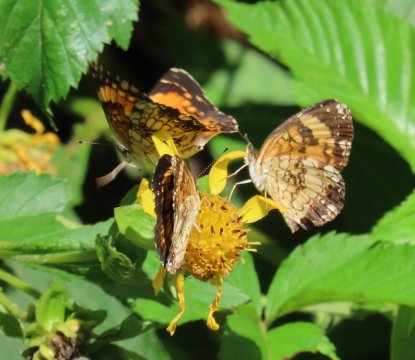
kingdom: Animalia
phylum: Arthropoda
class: Insecta
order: Lepidoptera
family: Nymphalidae
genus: Chlosyne
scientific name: Chlosyne nycteis
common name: Silvery Checkerspot
